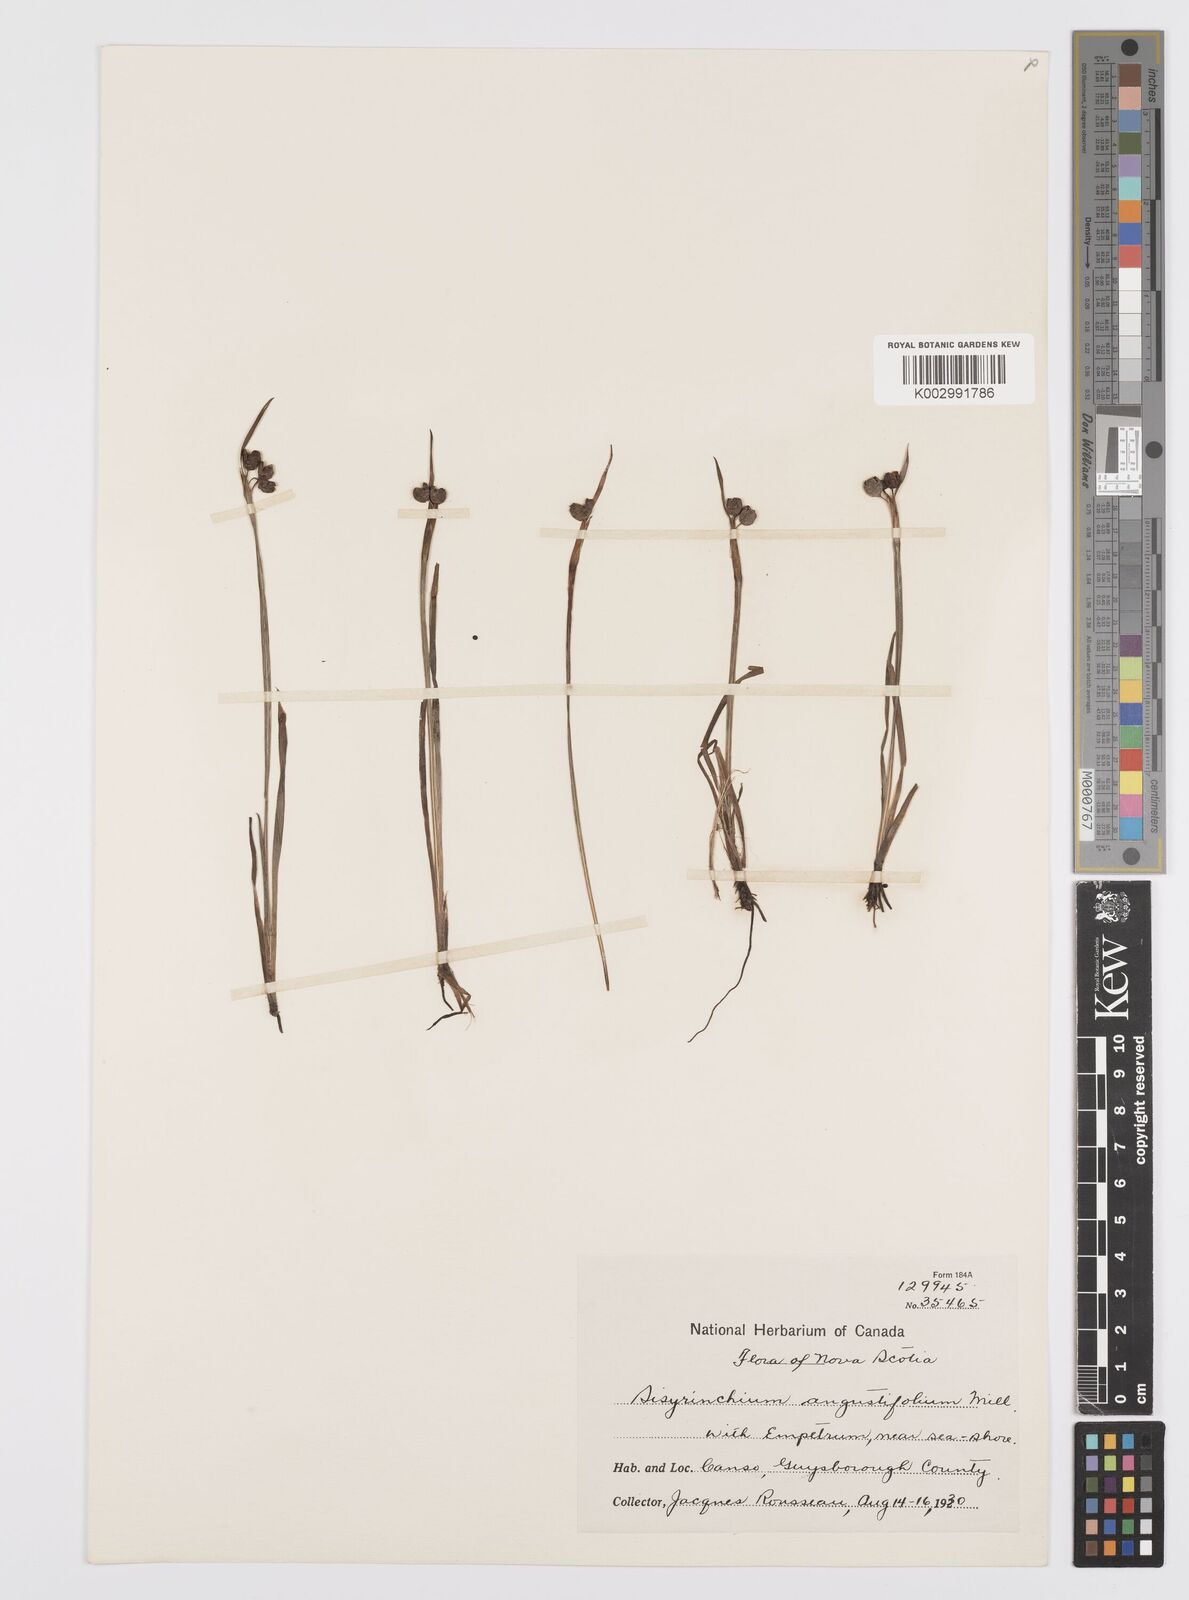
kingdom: Plantae
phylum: Tracheophyta
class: Liliopsida
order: Asparagales
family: Iridaceae
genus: Sisyrinchium
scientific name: Sisyrinchium bermudiana
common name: Blue-eyed-grass
